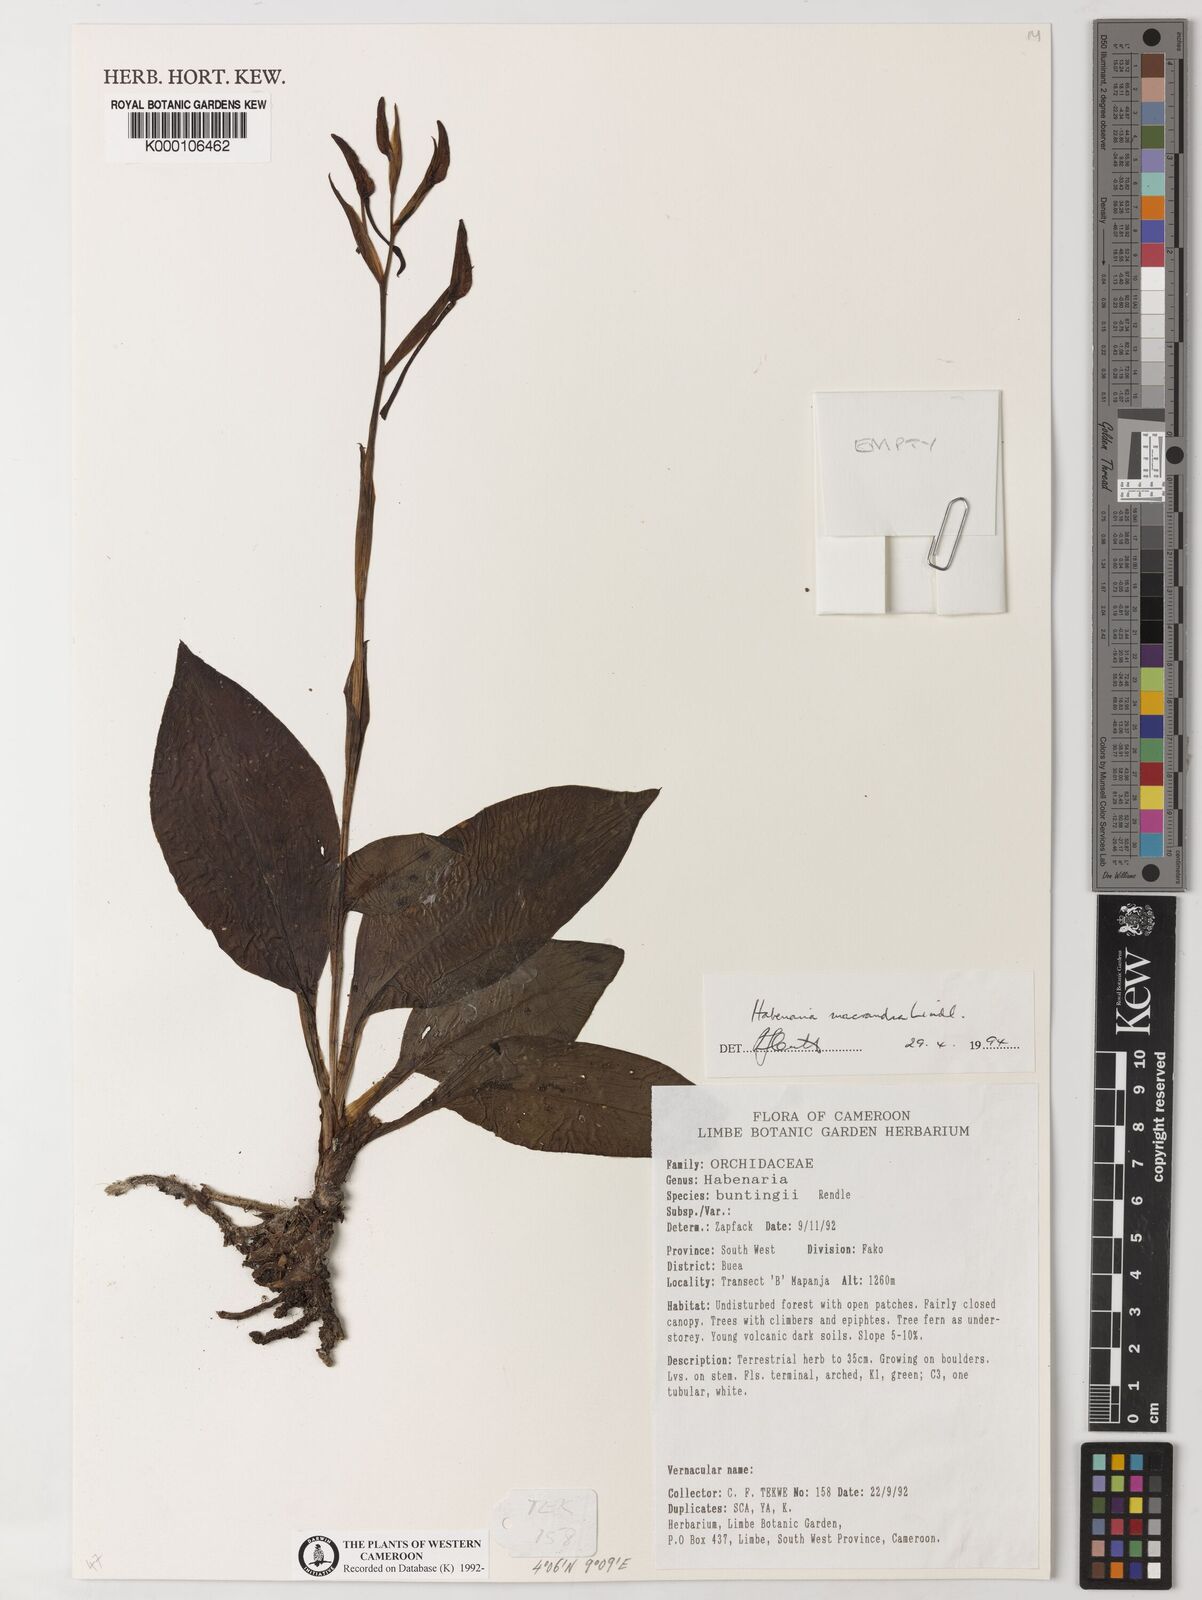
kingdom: Plantae
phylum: Tracheophyta
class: Liliopsida
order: Asparagales
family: Orchidaceae
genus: Habenaria
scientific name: Habenaria macrandra
